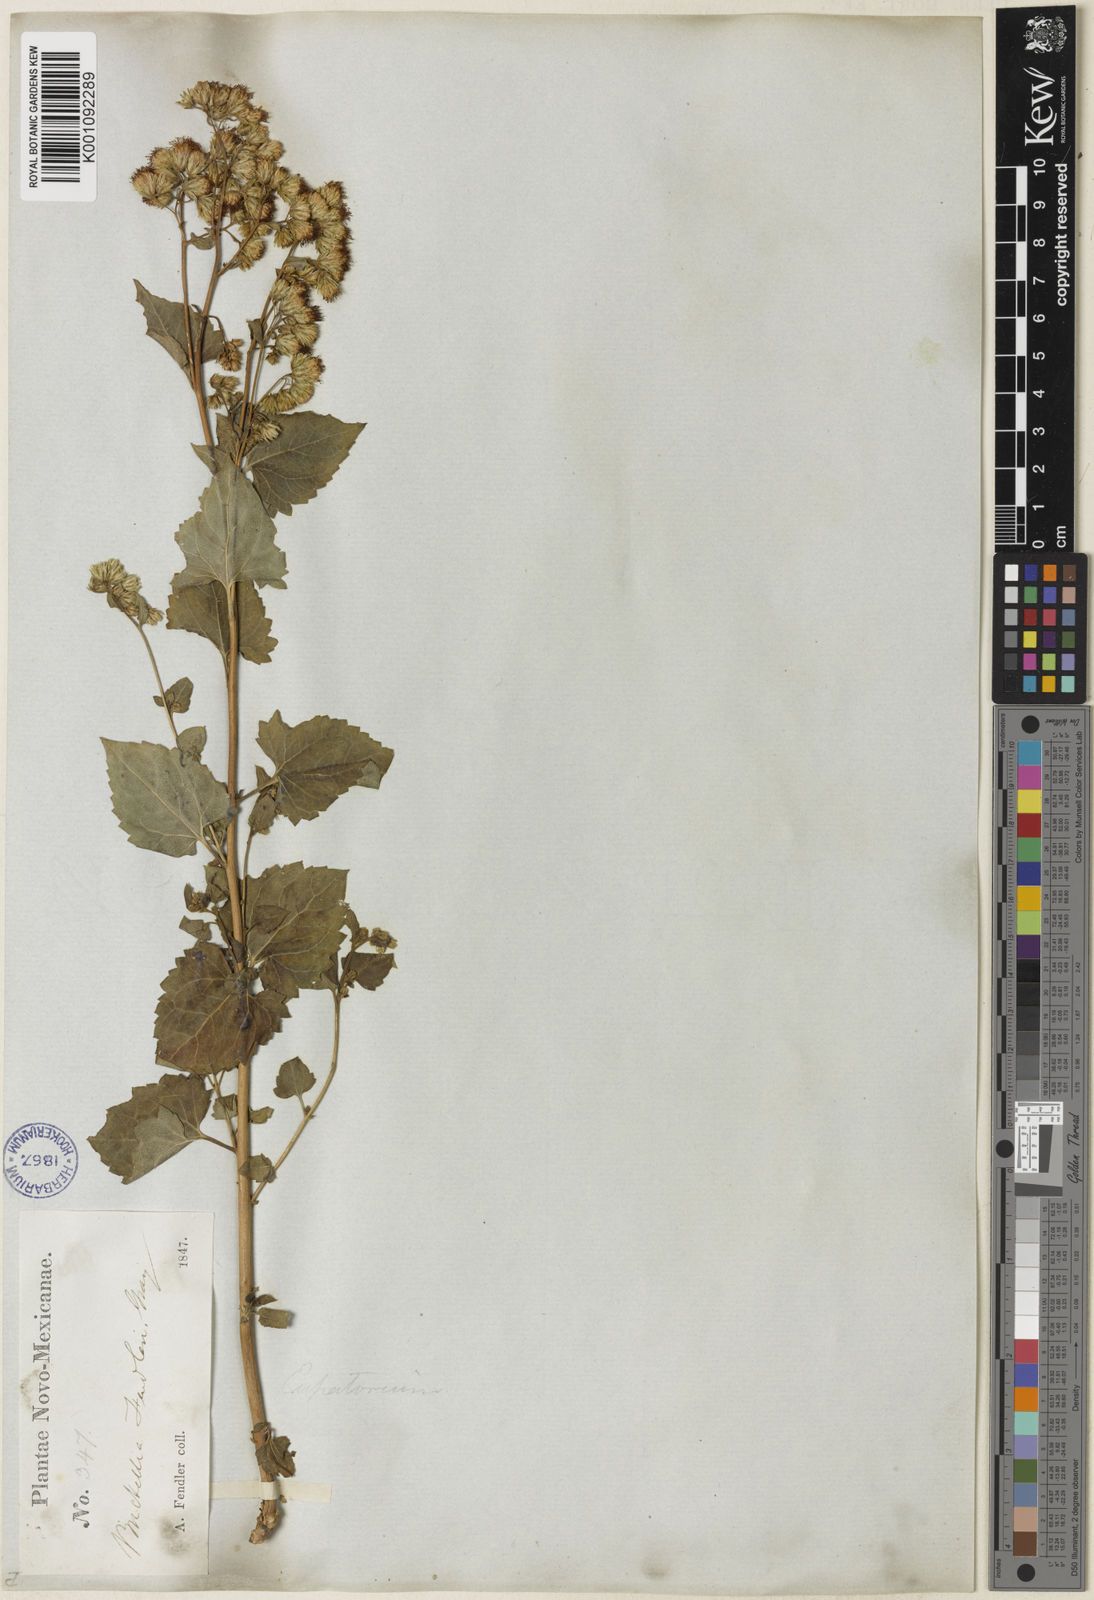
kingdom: Plantae
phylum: Tracheophyta
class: Magnoliopsida
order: Asterales
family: Asteraceae
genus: Brickelliastrum
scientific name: Brickelliastrum fendleri
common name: Fendler's-brickellbush
